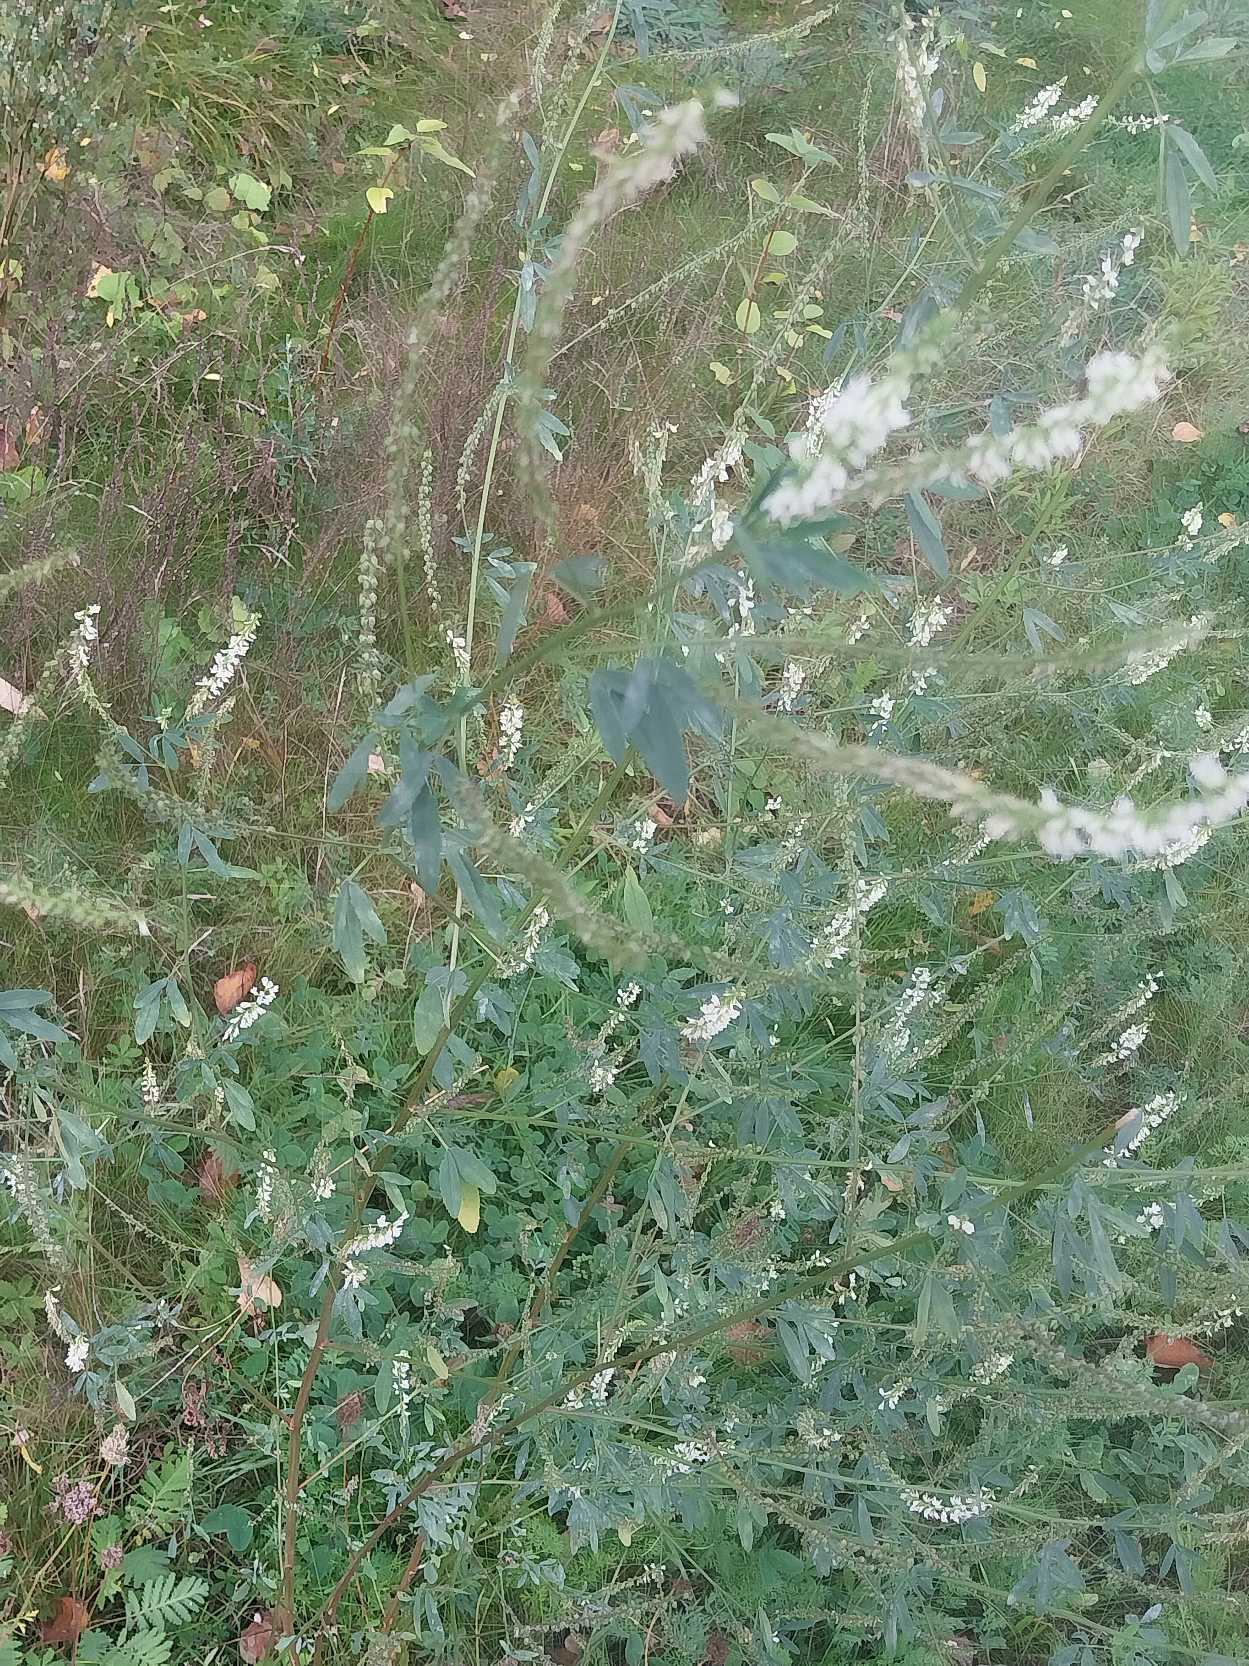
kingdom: Plantae
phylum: Tracheophyta
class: Magnoliopsida
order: Fabales
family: Fabaceae
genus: Melilotus
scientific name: Melilotus albus
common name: Hvid stenkløver
